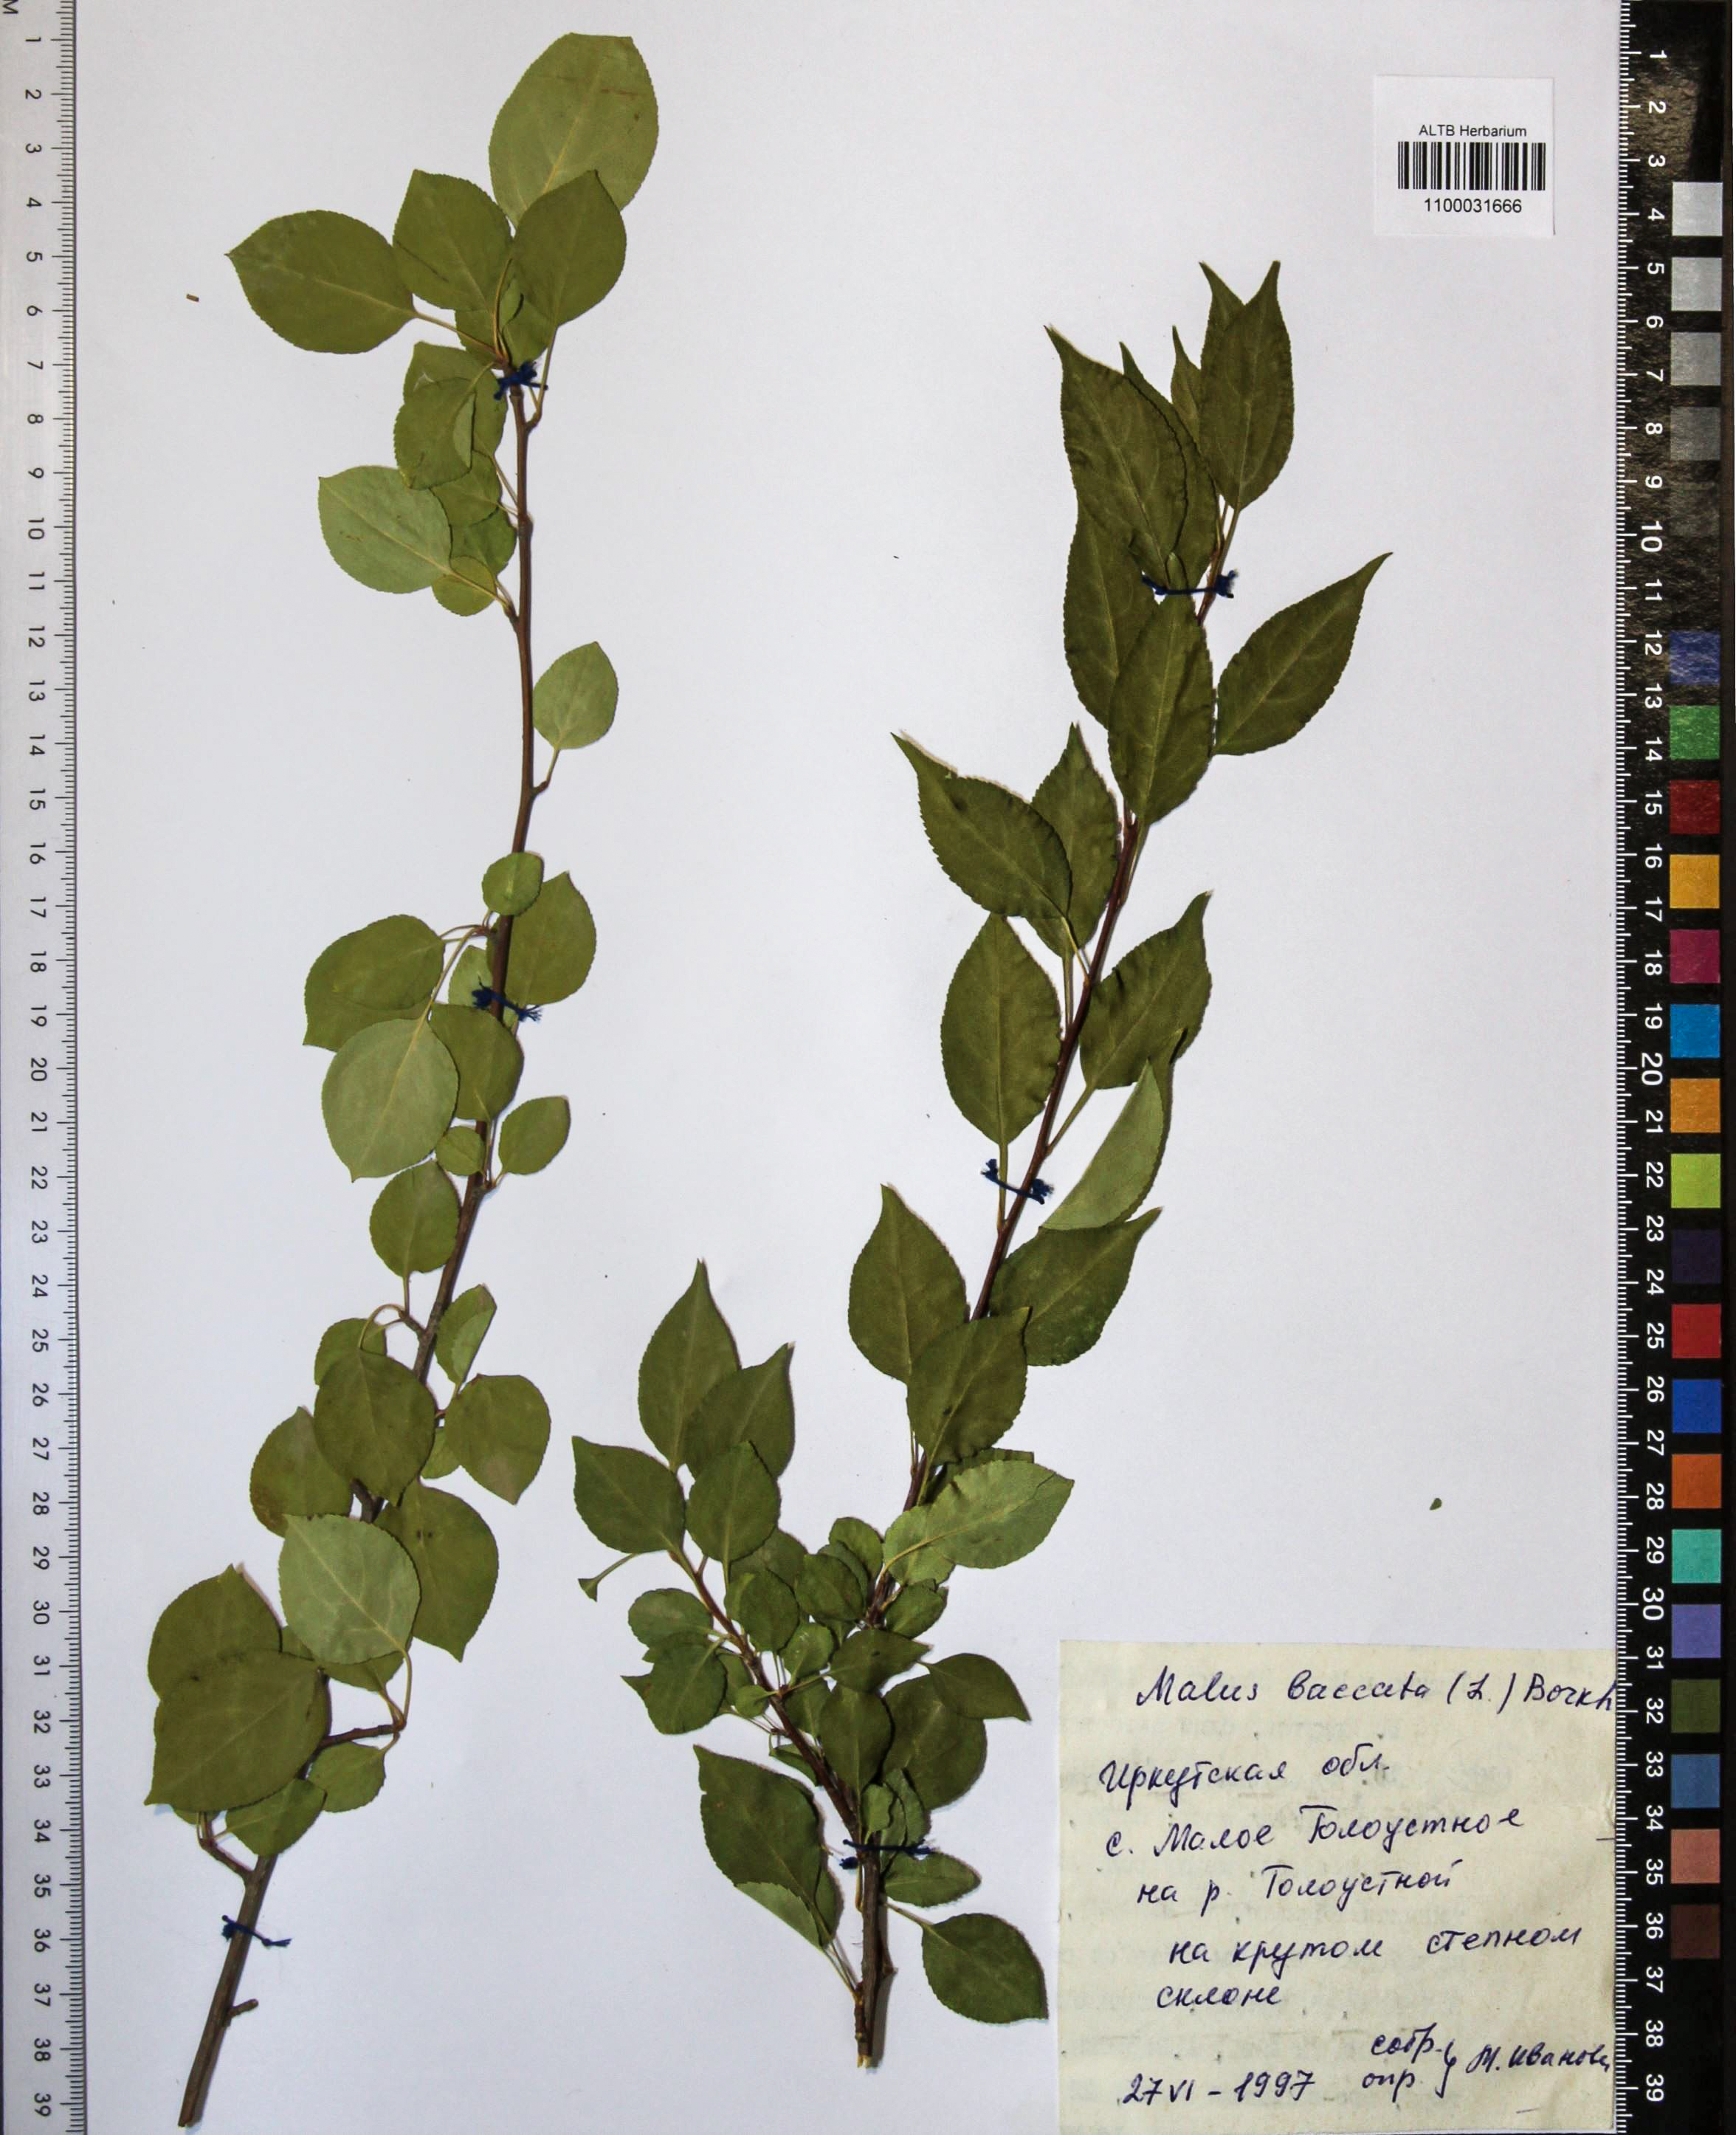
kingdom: Plantae
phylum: Tracheophyta
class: Magnoliopsida
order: Rosales
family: Rosaceae
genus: Malus
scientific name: Malus baccata
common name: Siberian crab
